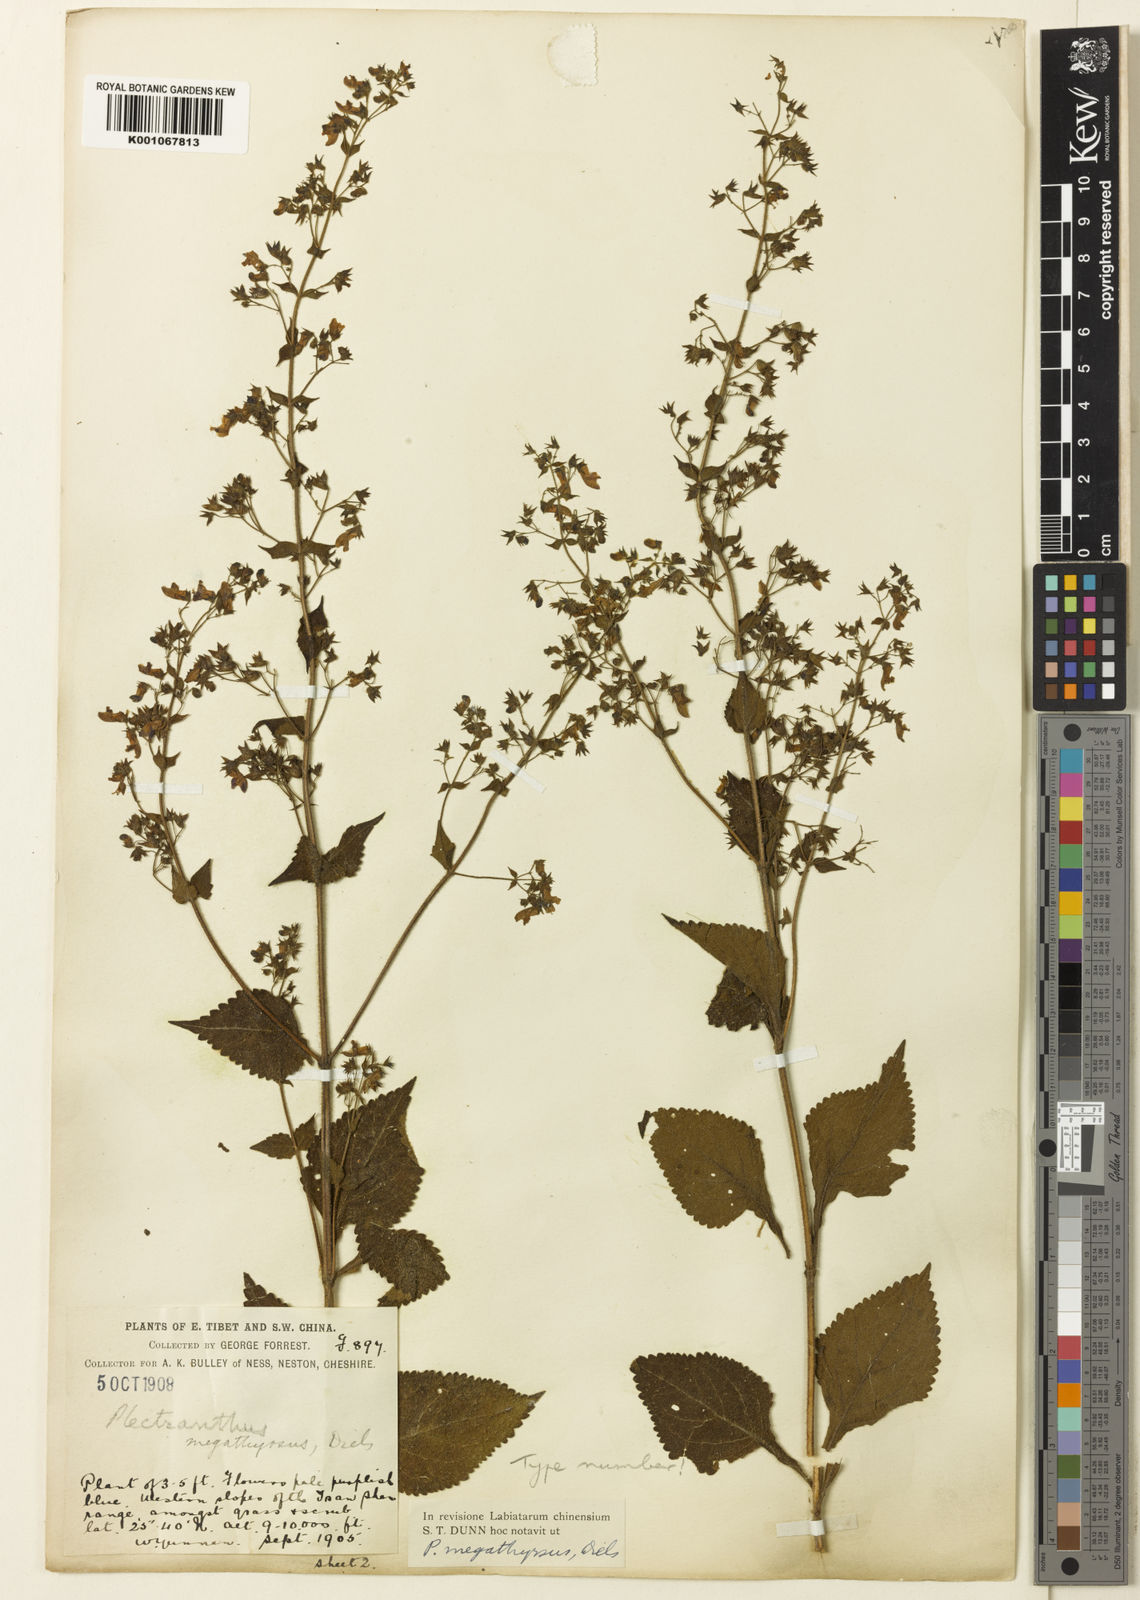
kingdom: Plantae
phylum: Tracheophyta
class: Magnoliopsida
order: Lamiales
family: Lamiaceae
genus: Isodon
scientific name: Isodon
